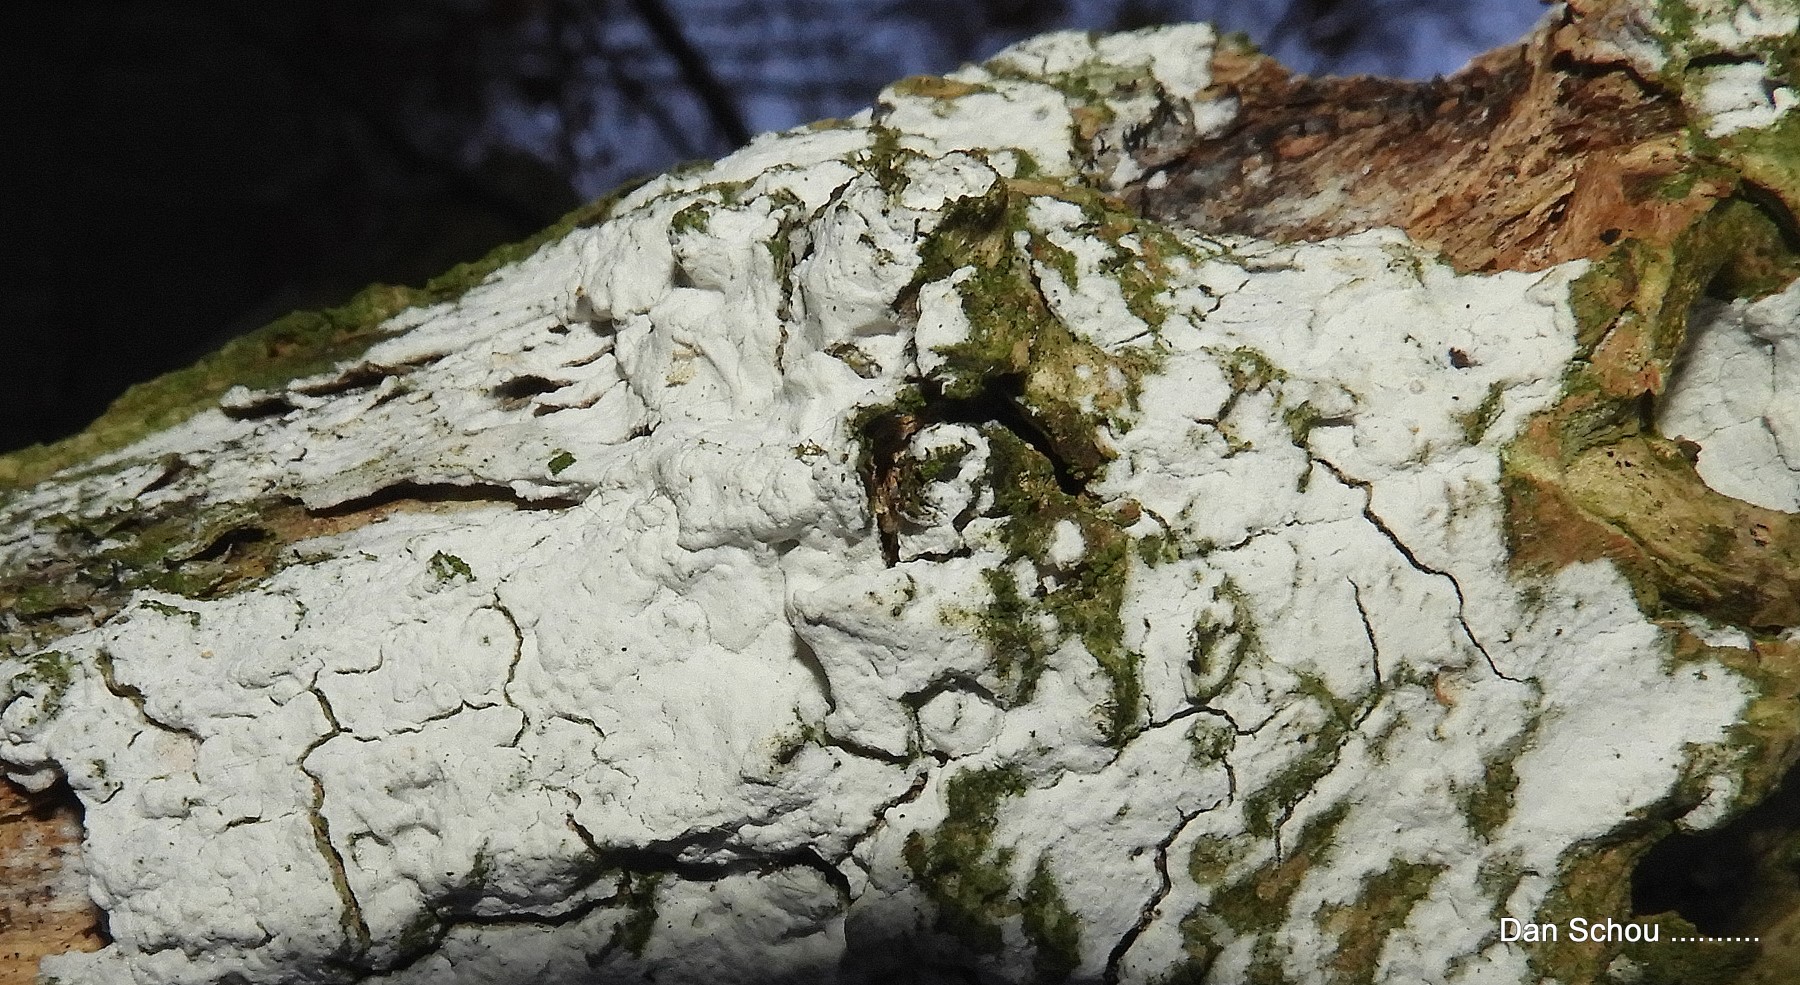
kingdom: Fungi
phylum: Basidiomycota
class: Agaricomycetes
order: Corticiales
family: Corticiaceae
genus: Lyomyces
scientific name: Lyomyces sambuci
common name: almindelig hyldehinde
